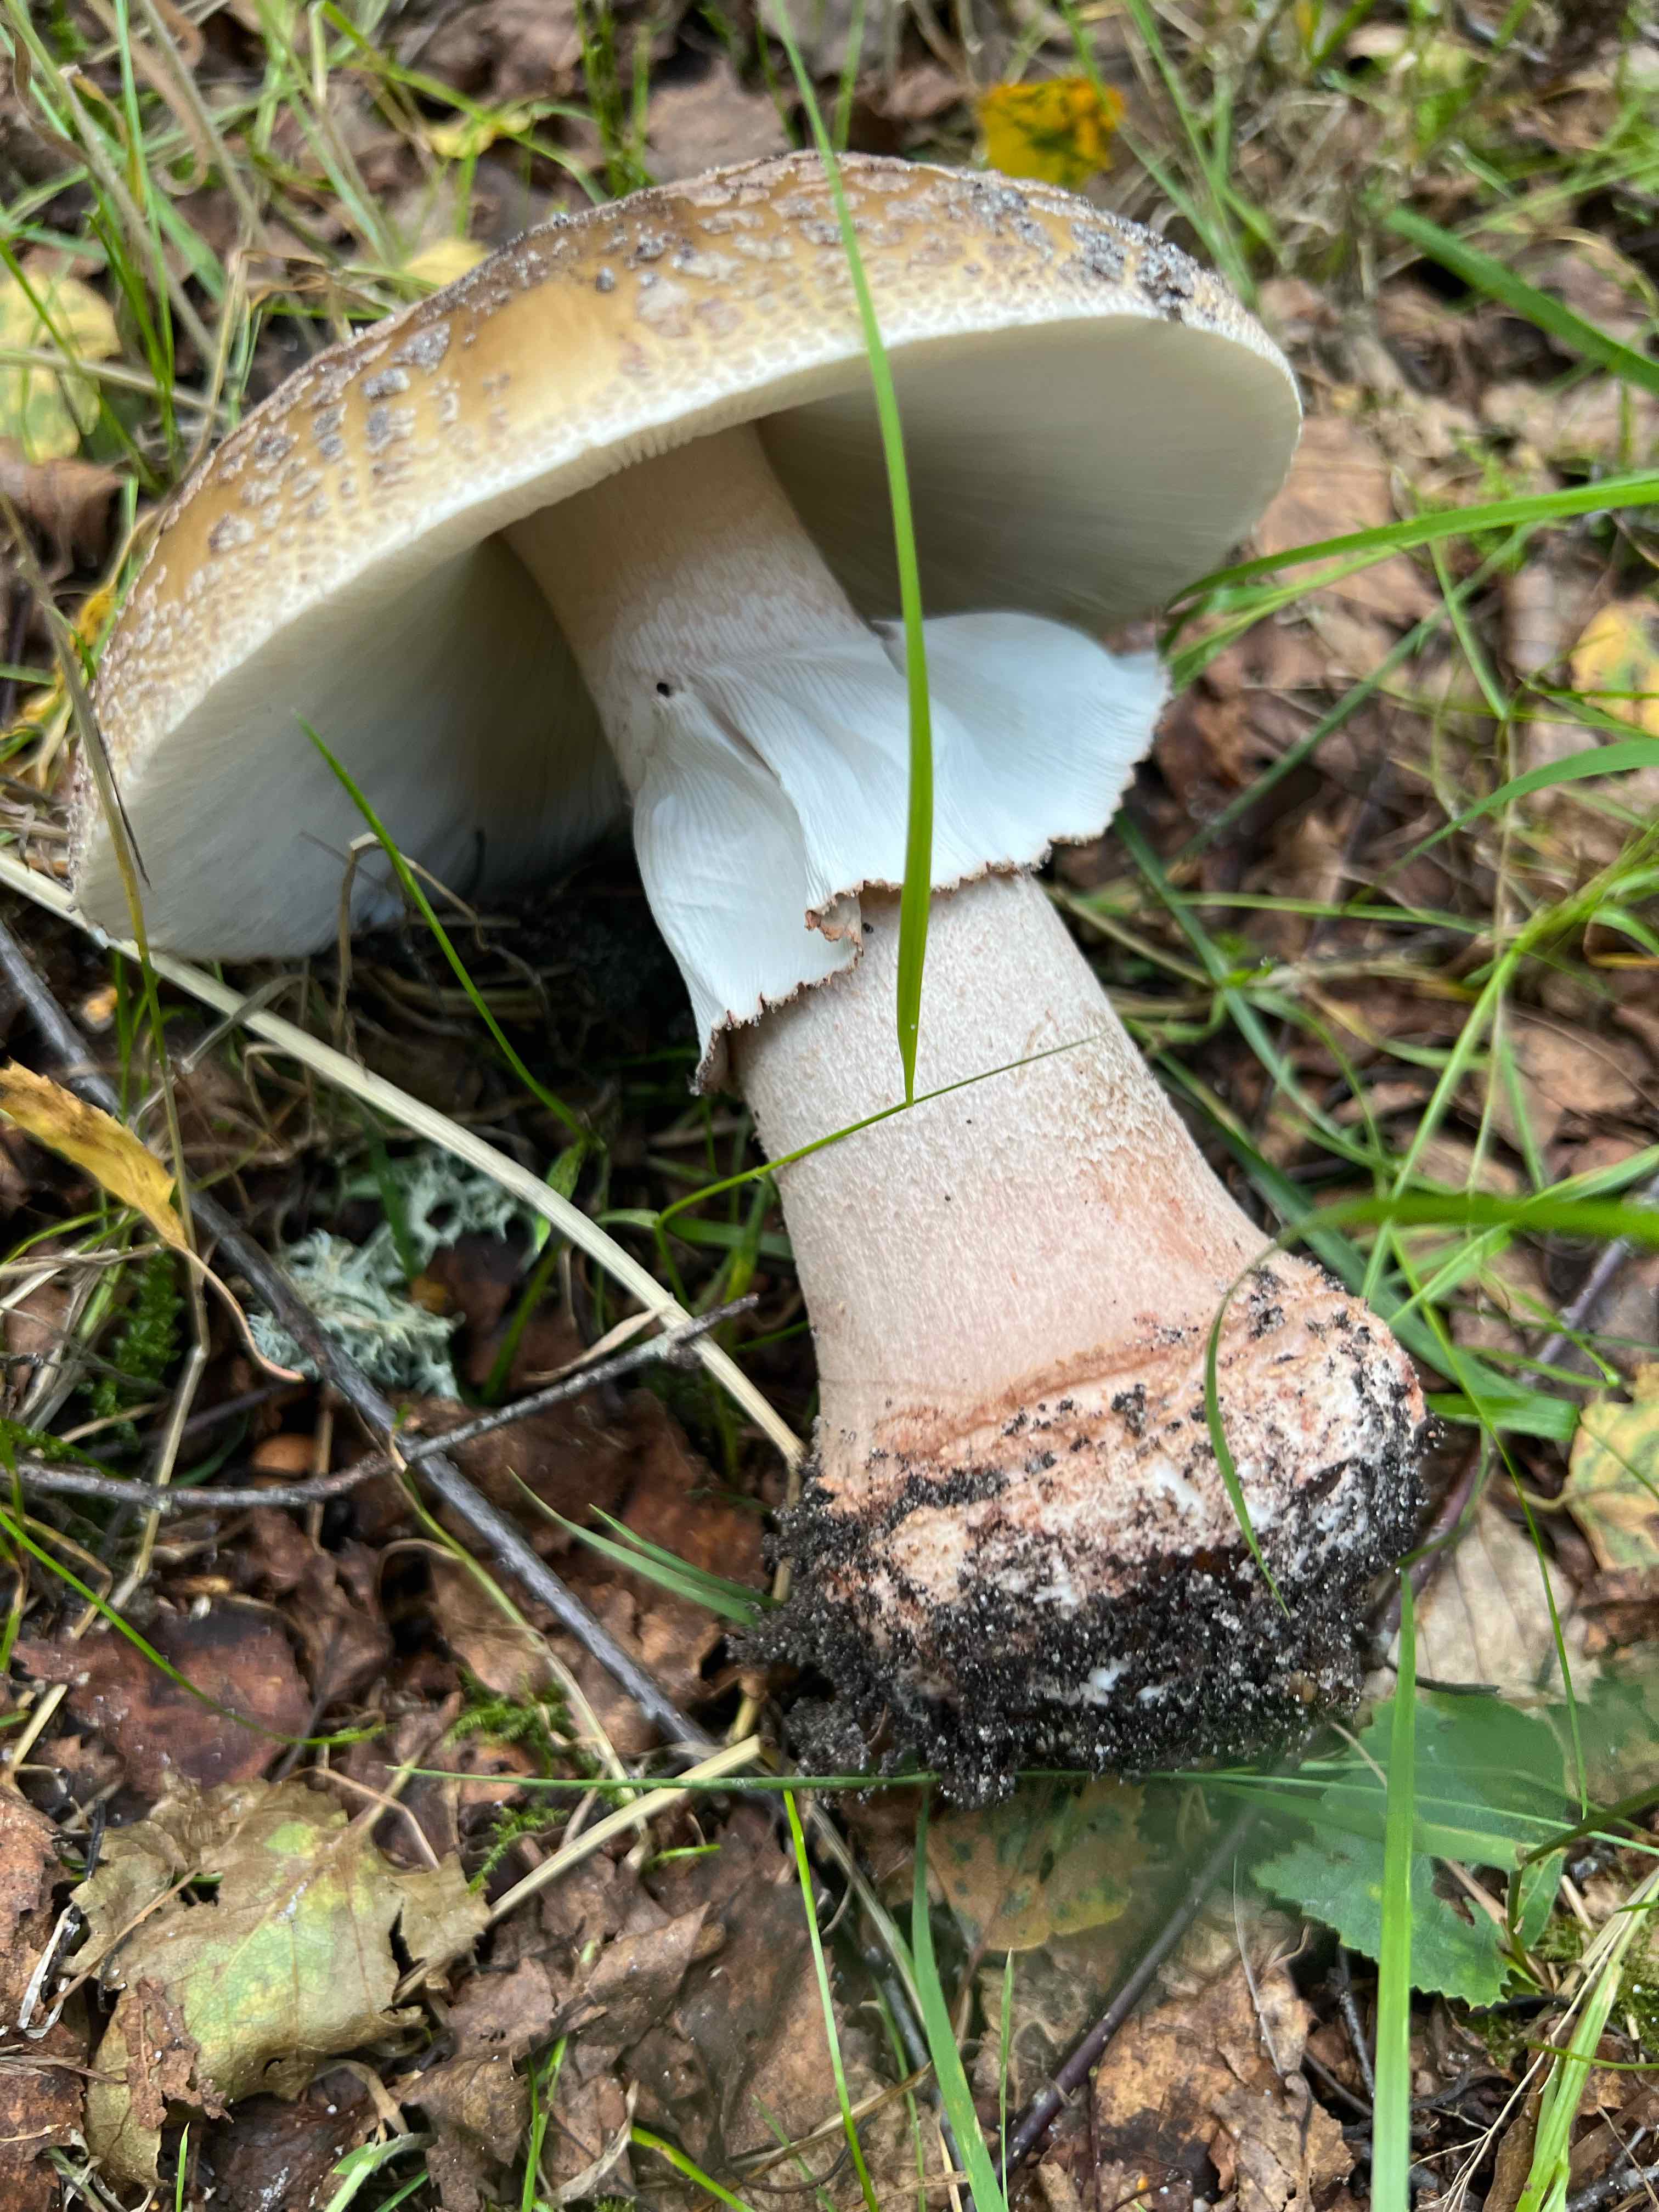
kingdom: Fungi
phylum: Basidiomycota
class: Agaricomycetes
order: Agaricales
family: Amanitaceae
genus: Amanita
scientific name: Amanita rubescens
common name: rødmende fluesvamp
